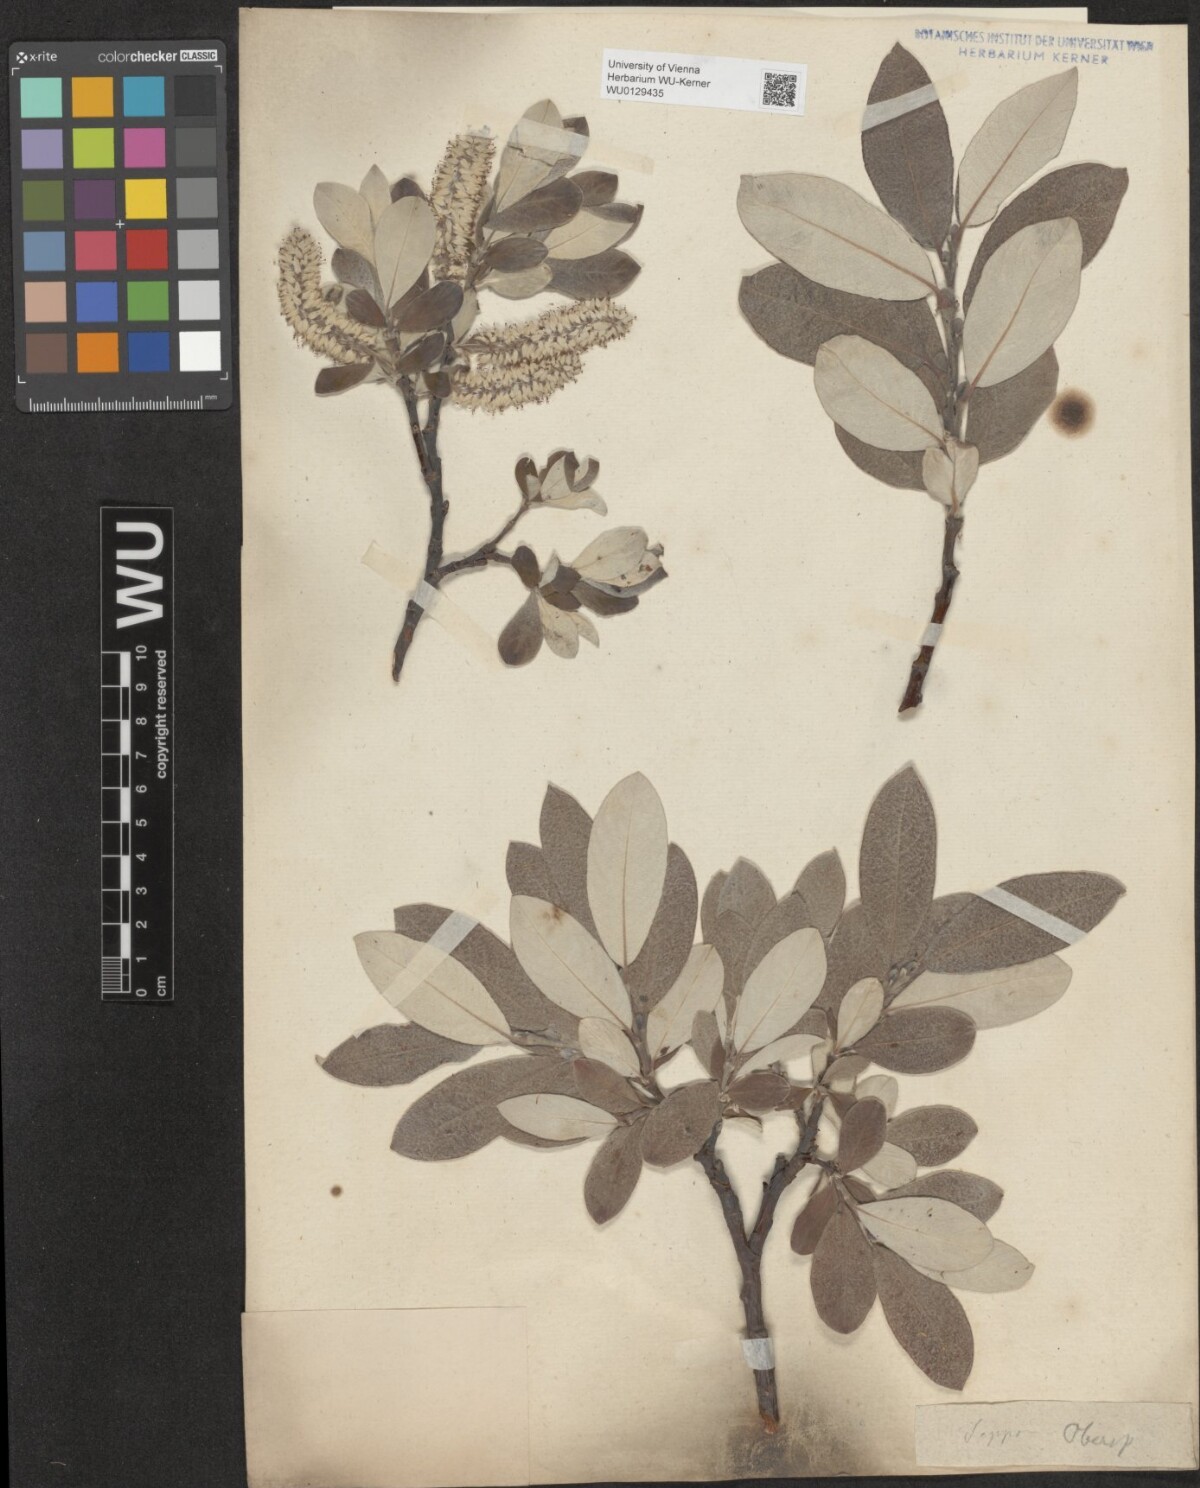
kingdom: Plantae
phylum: Tracheophyta
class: Magnoliopsida
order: Malpighiales
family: Salicaceae
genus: Salix
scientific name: Salix helvetica
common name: Swiss willow
